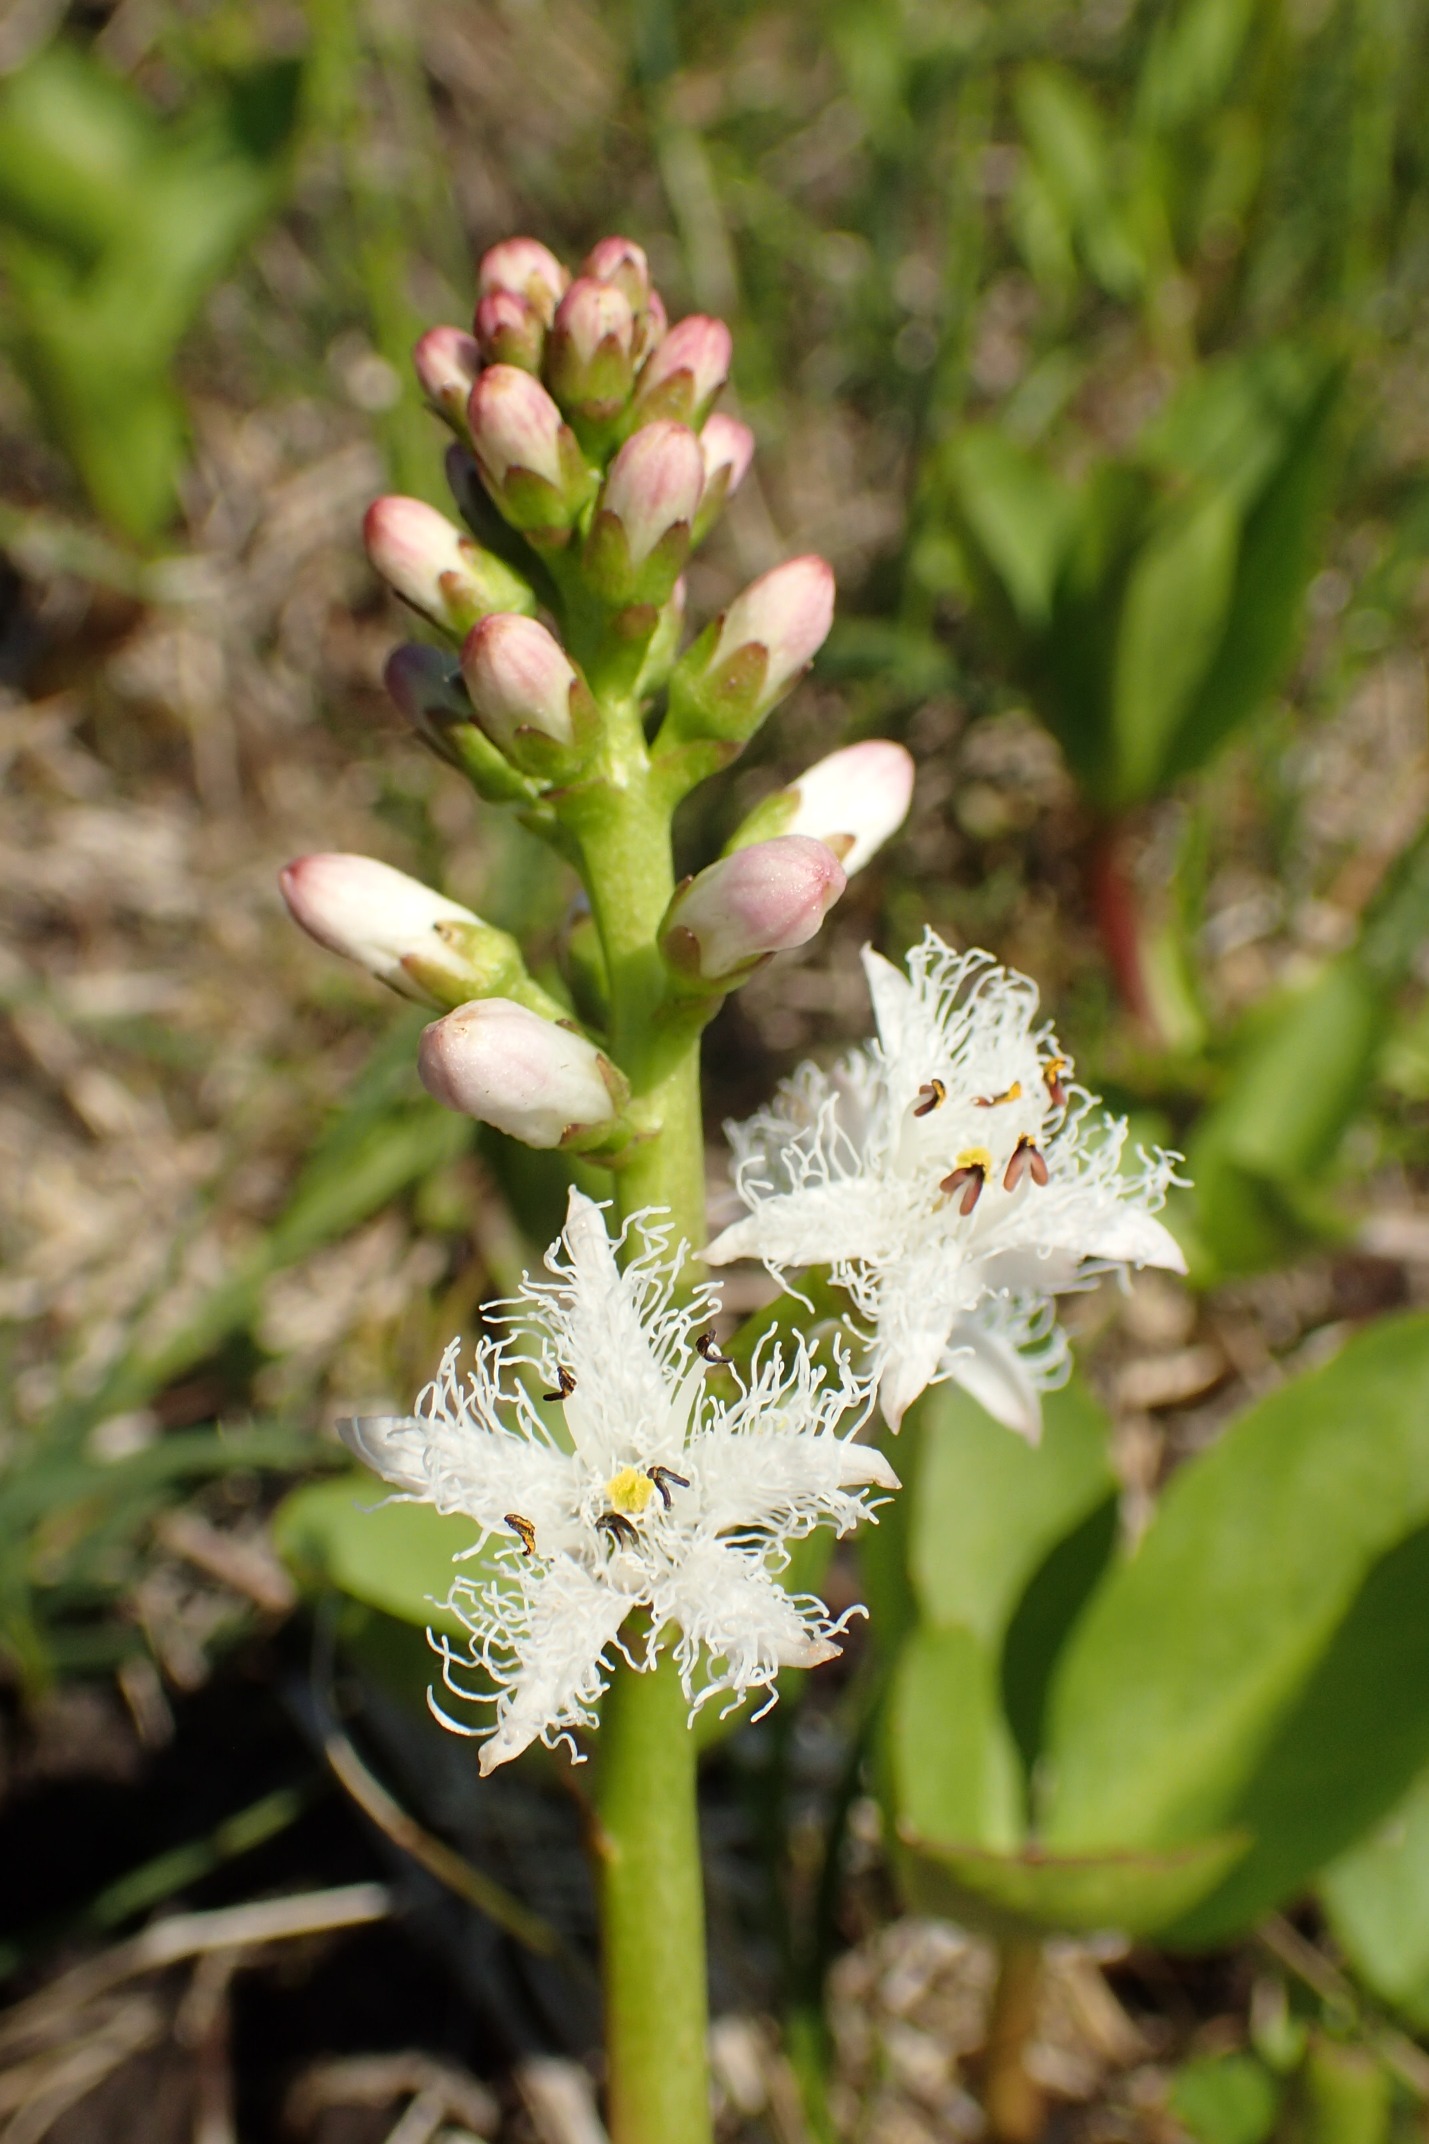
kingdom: Plantae
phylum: Tracheophyta
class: Magnoliopsida
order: Asterales
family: Menyanthaceae
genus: Menyanthes
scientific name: Menyanthes trifoliata
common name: Bukkeblad
